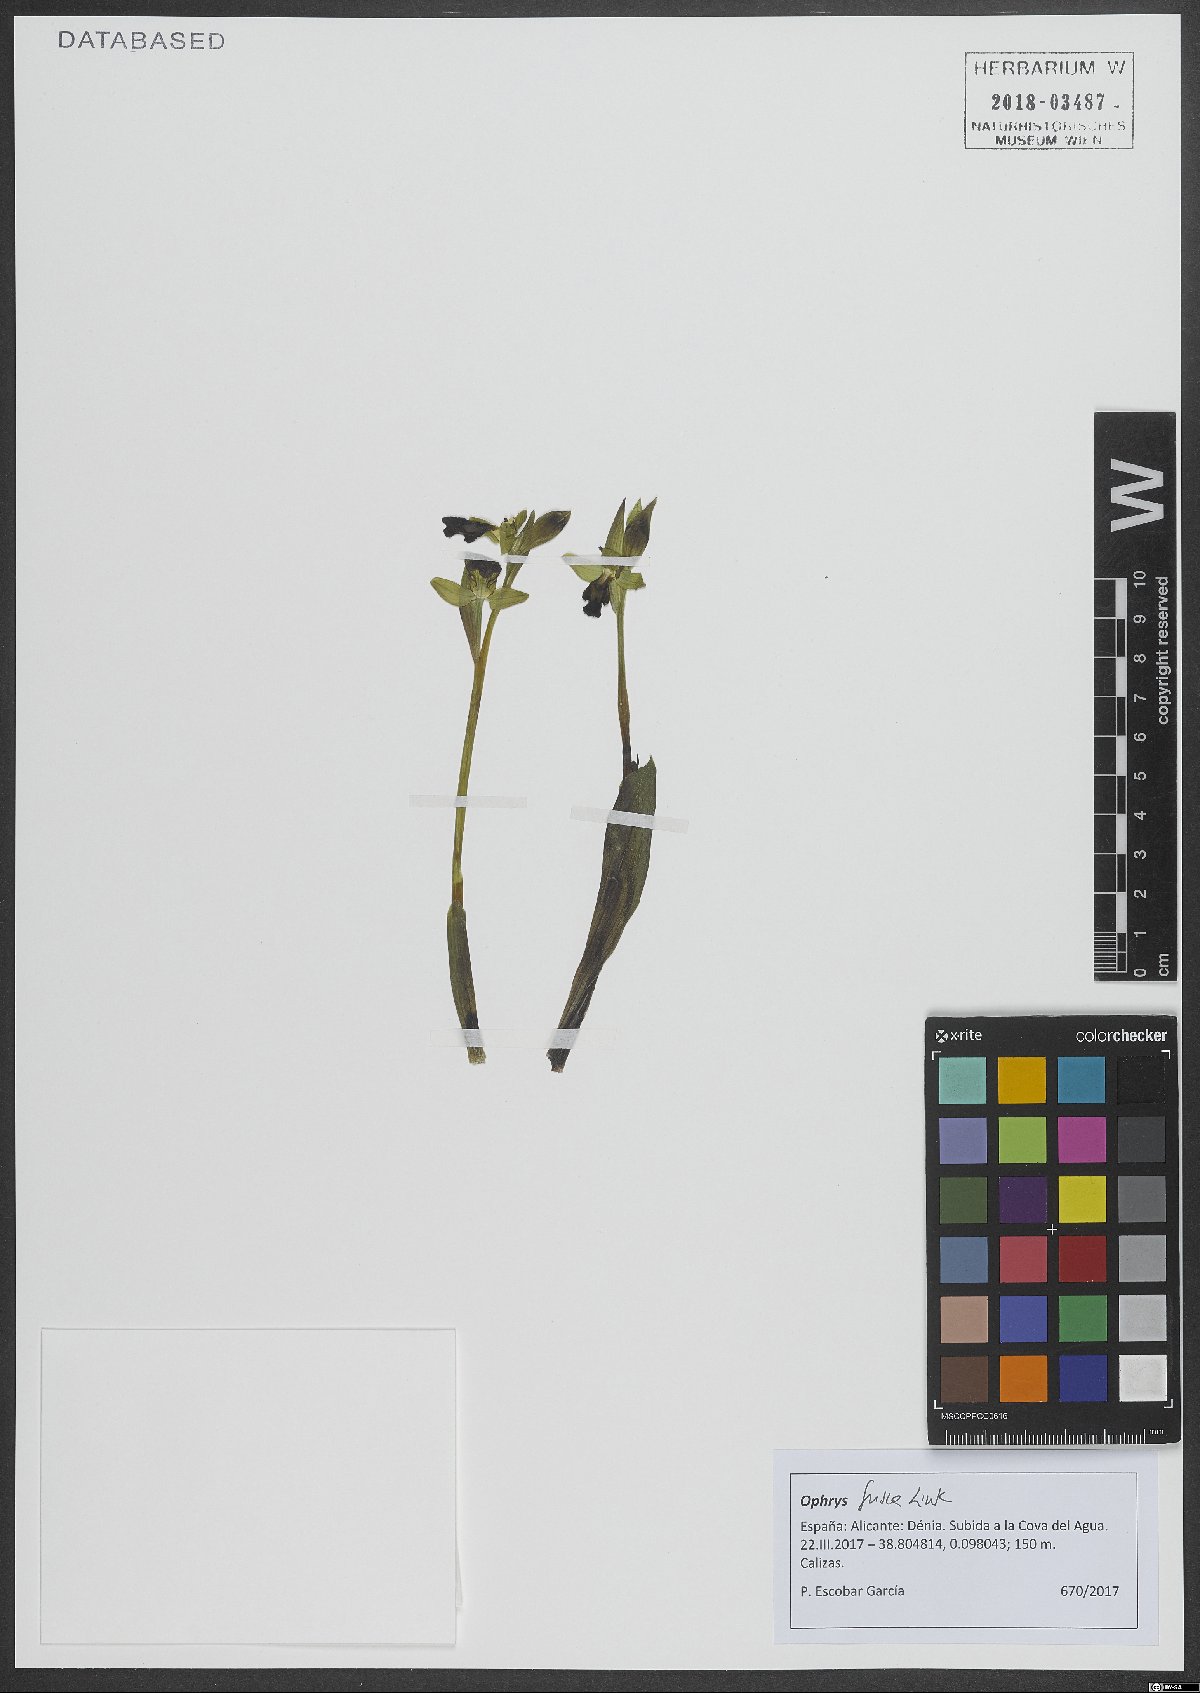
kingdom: Plantae
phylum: Tracheophyta
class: Liliopsida
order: Asparagales
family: Orchidaceae
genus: Ophrys
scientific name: Ophrys fusca
